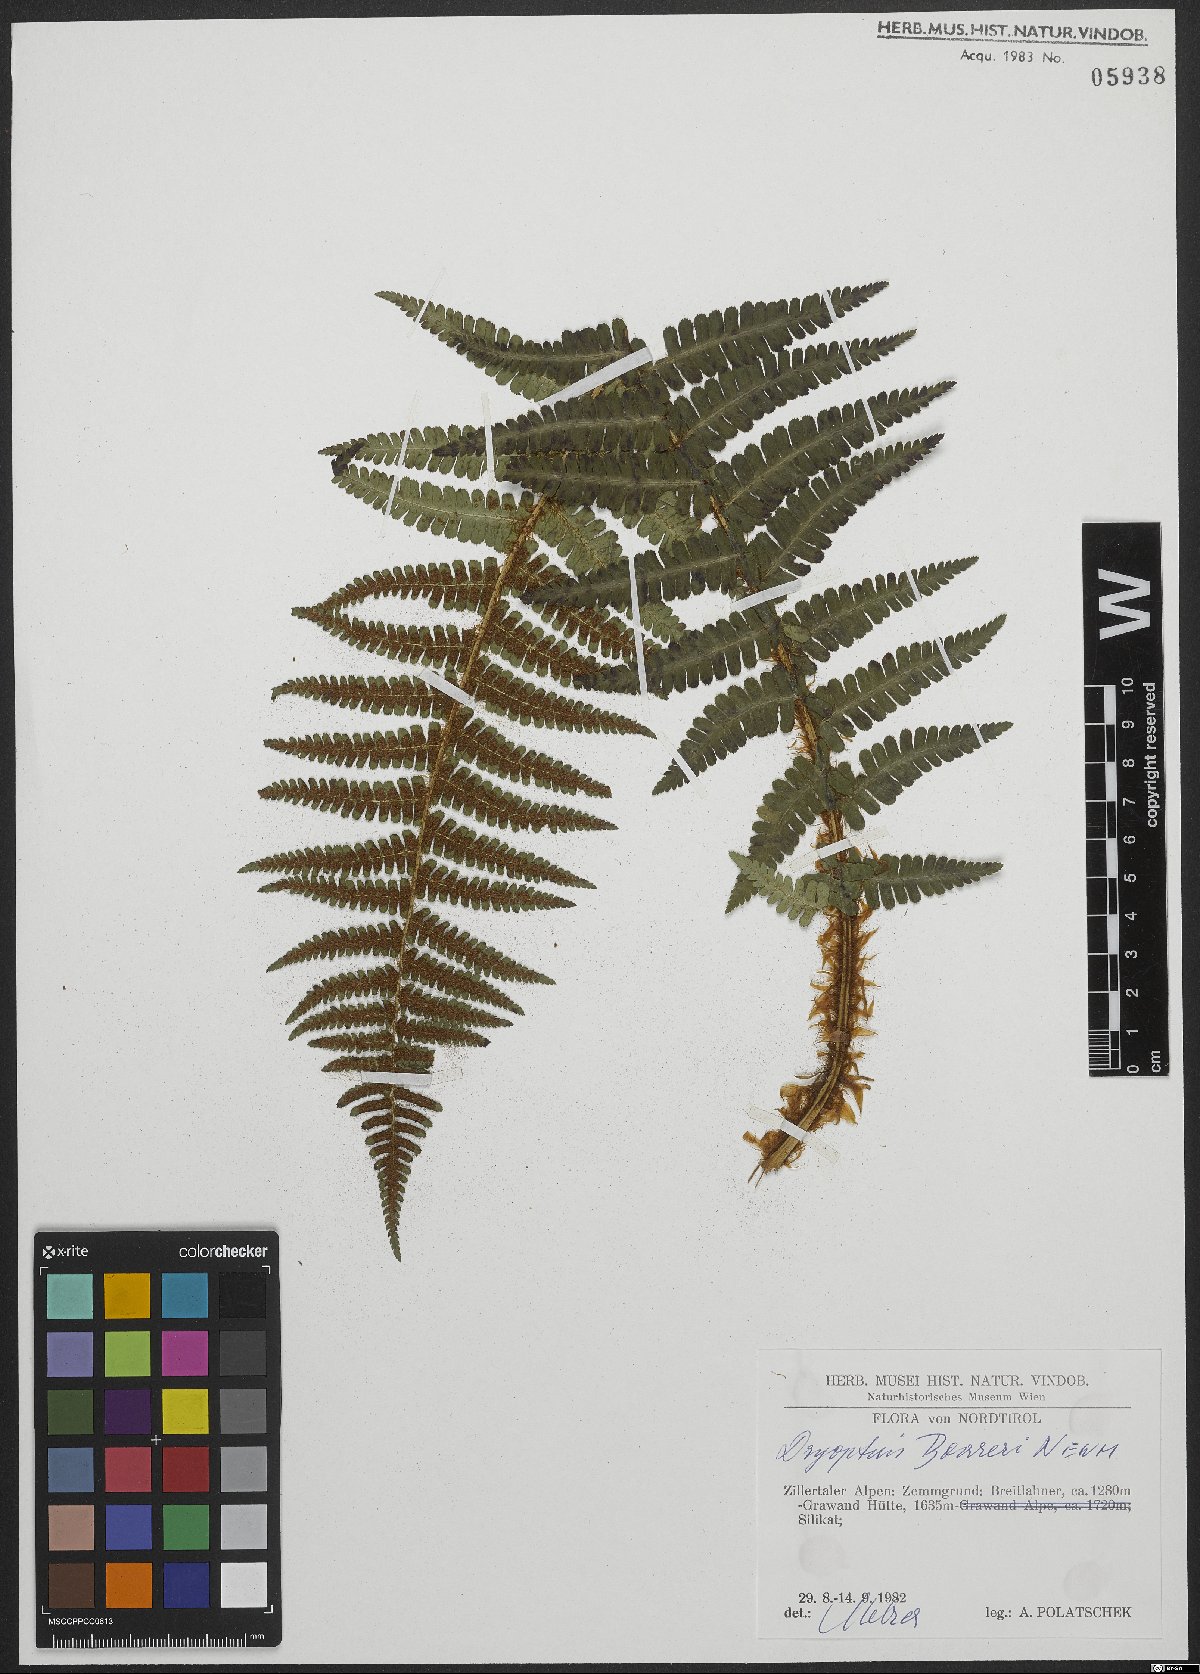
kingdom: Plantae
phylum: Tracheophyta
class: Polypodiopsida
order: Polypodiales
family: Dryopteridaceae
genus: Dryopteris
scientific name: Dryopteris cambrensis
